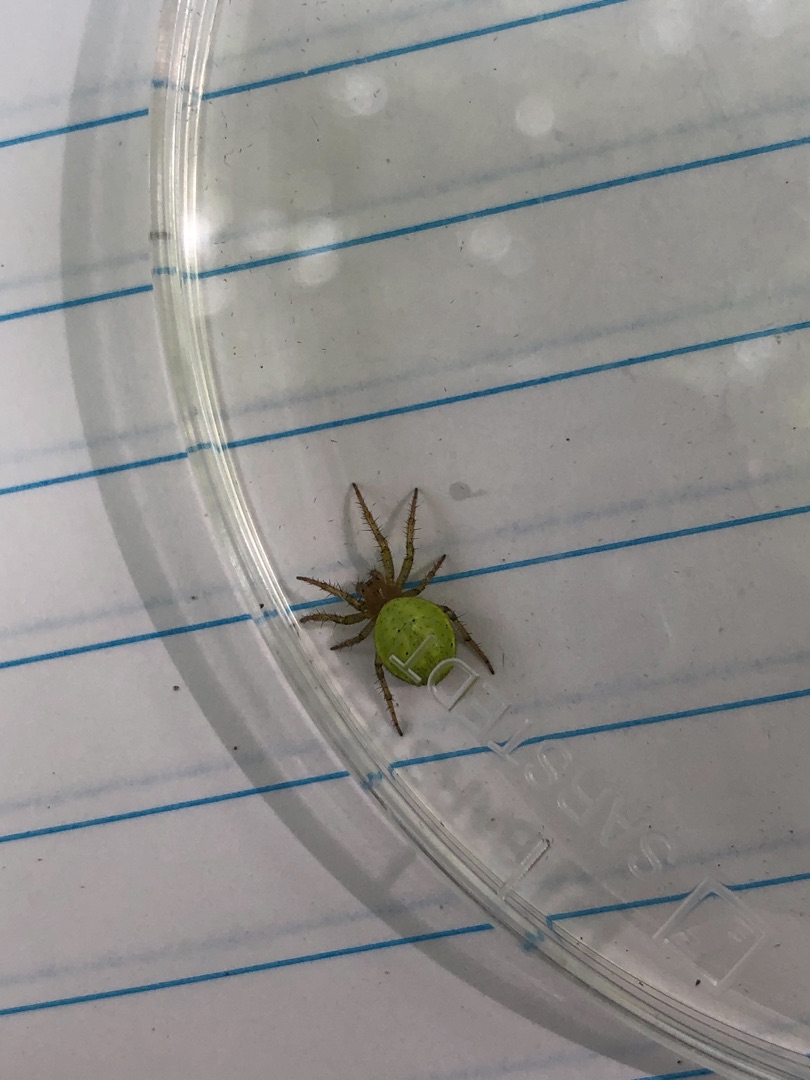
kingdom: Animalia
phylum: Arthropoda
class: Arachnida
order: Araneae
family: Araneidae
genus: Araniella
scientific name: Araniella
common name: Agurkeedderkopslægten
